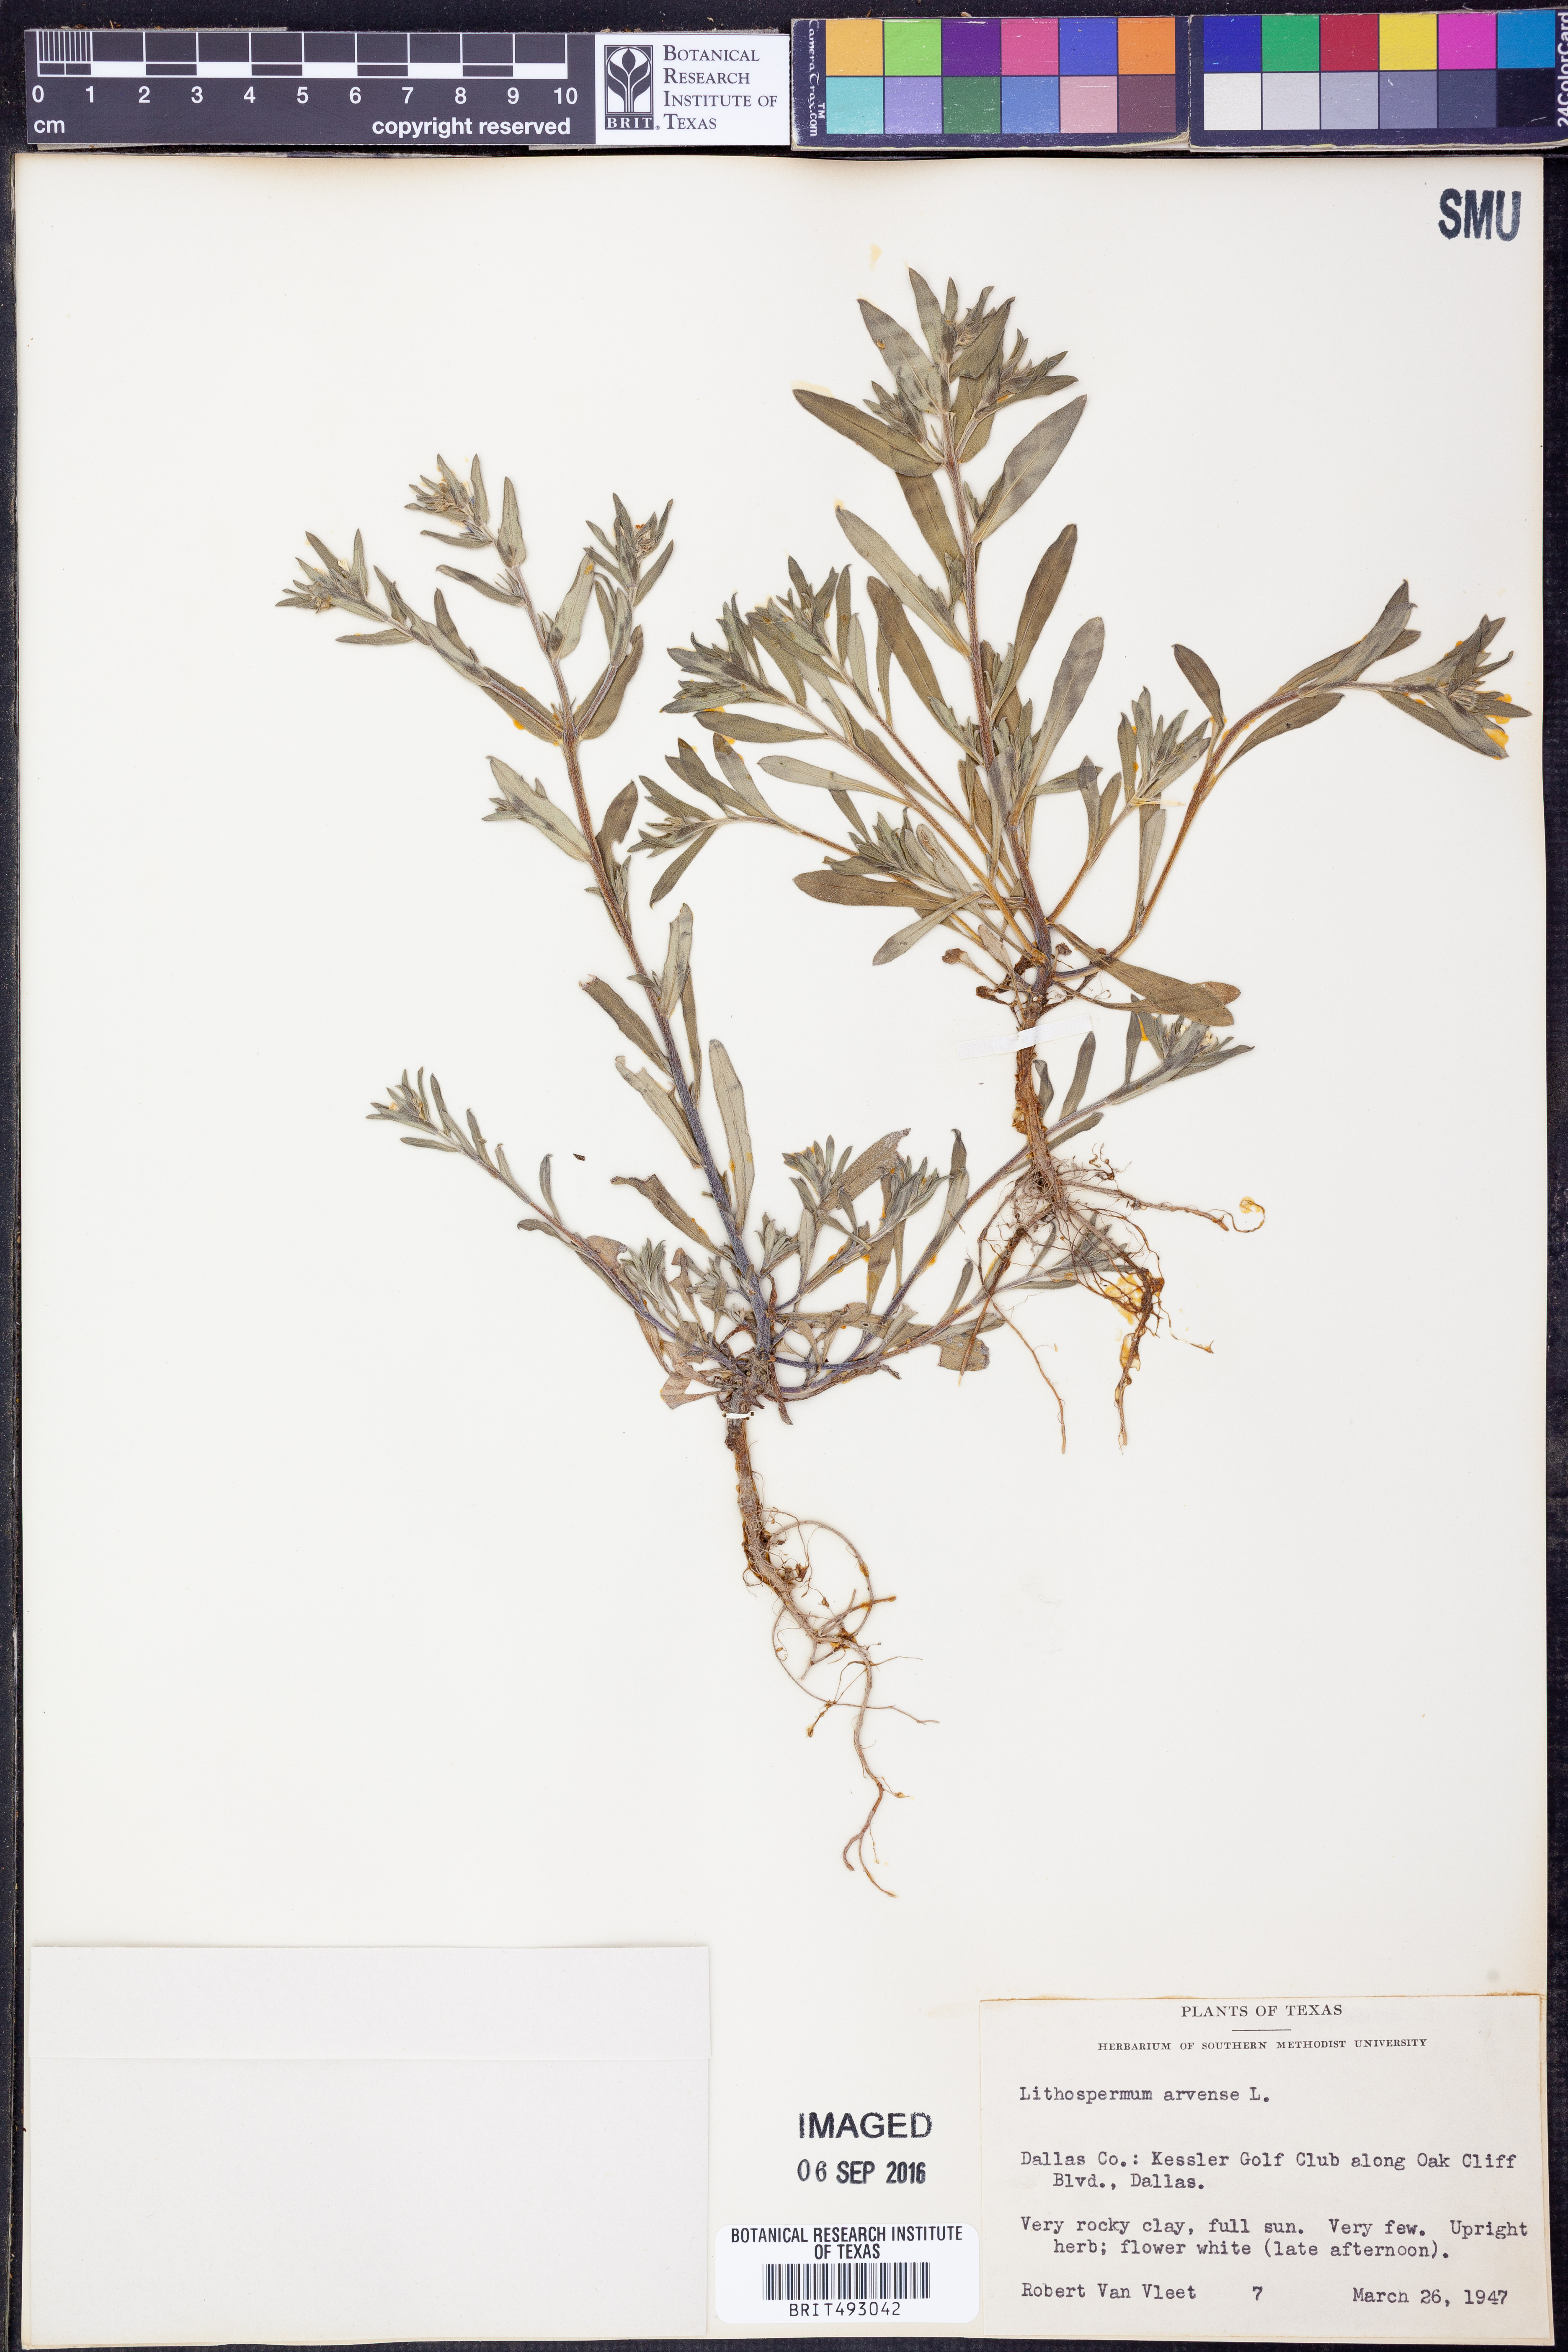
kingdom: Plantae
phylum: Tracheophyta
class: Magnoliopsida
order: Boraginales
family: Boraginaceae
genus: Lithospermum
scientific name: Lithospermum erythrorhizon
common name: Purple gromwell
